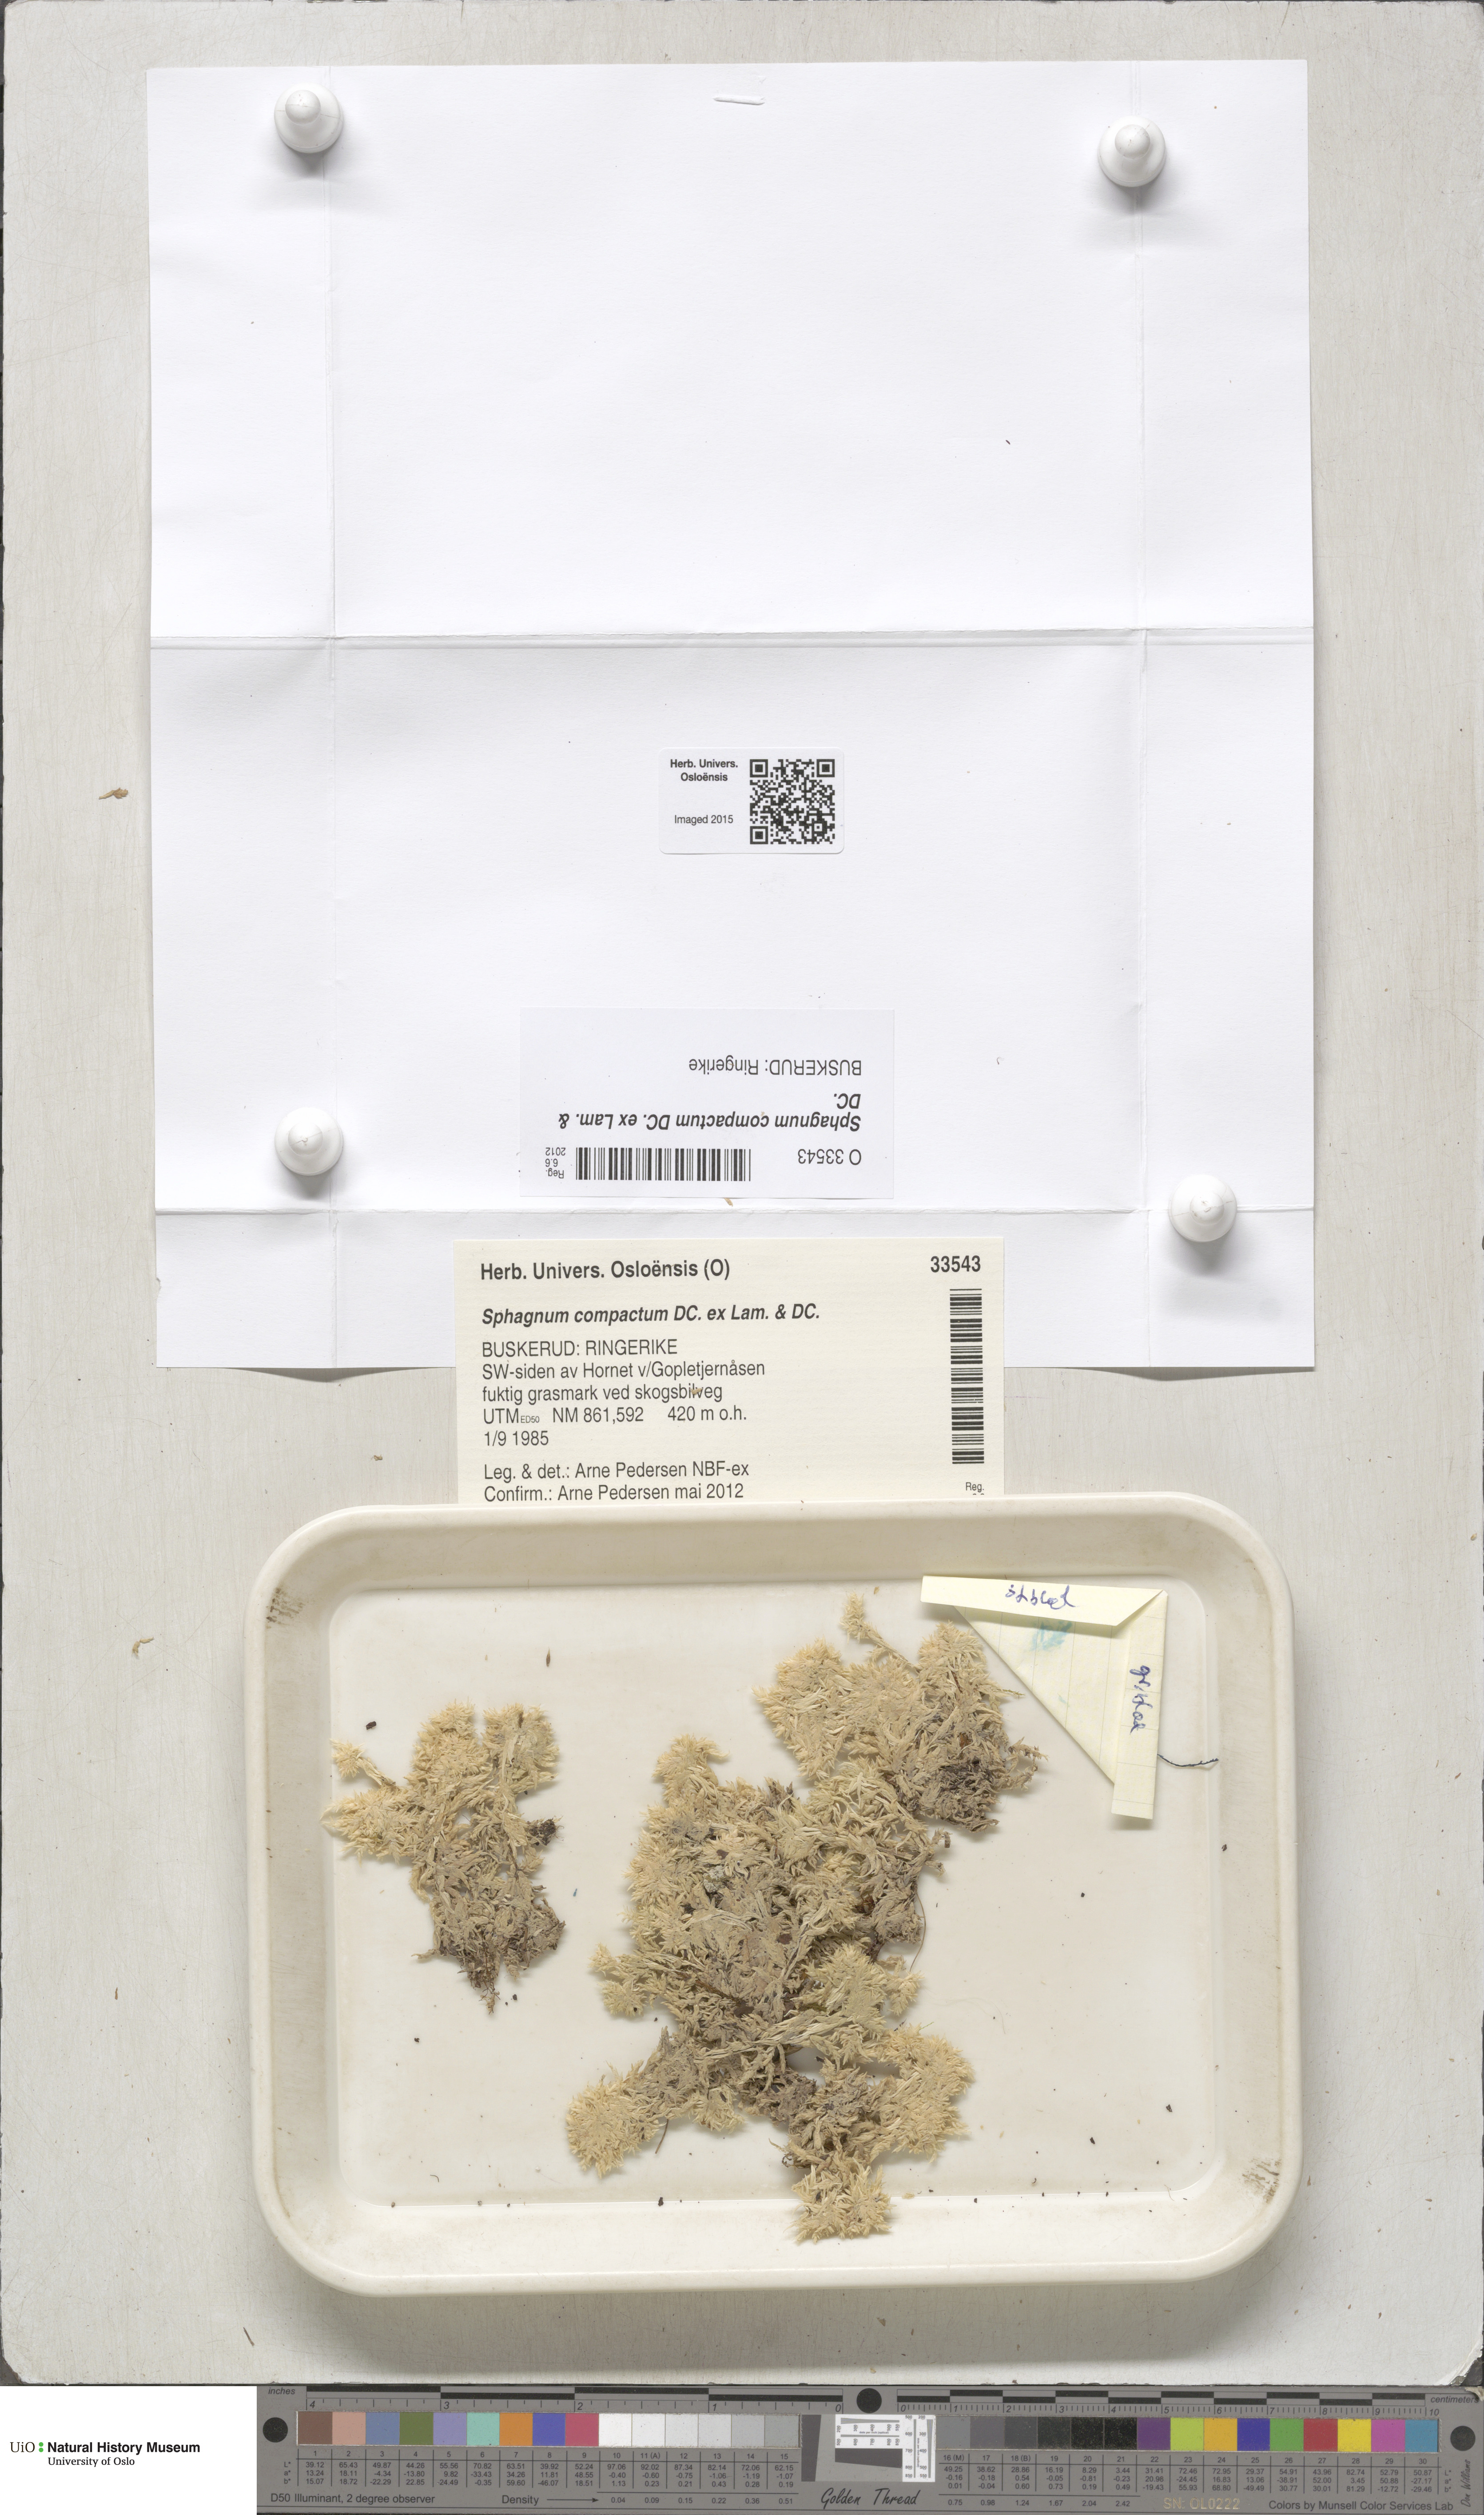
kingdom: Plantae
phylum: Bryophyta
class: Sphagnopsida
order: Sphagnales
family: Sphagnaceae
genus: Sphagnum
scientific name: Sphagnum compactum
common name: Compact peat moss
